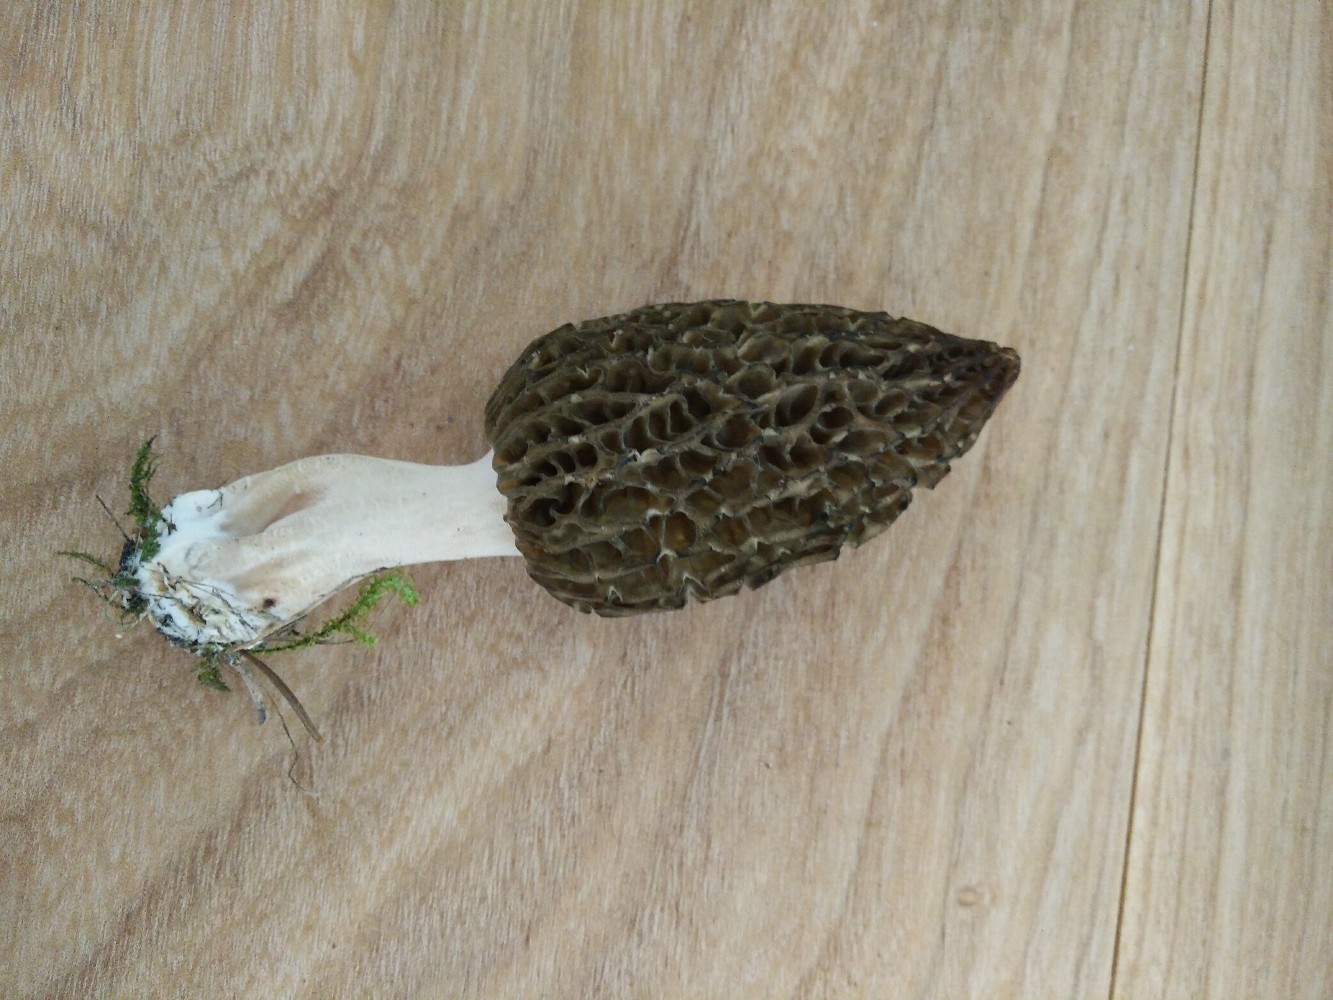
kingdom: Fungi
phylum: Ascomycota
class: Pezizomycetes
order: Pezizales
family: Morchellaceae
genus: Morchella
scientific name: Morchella esculenta
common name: Morel
